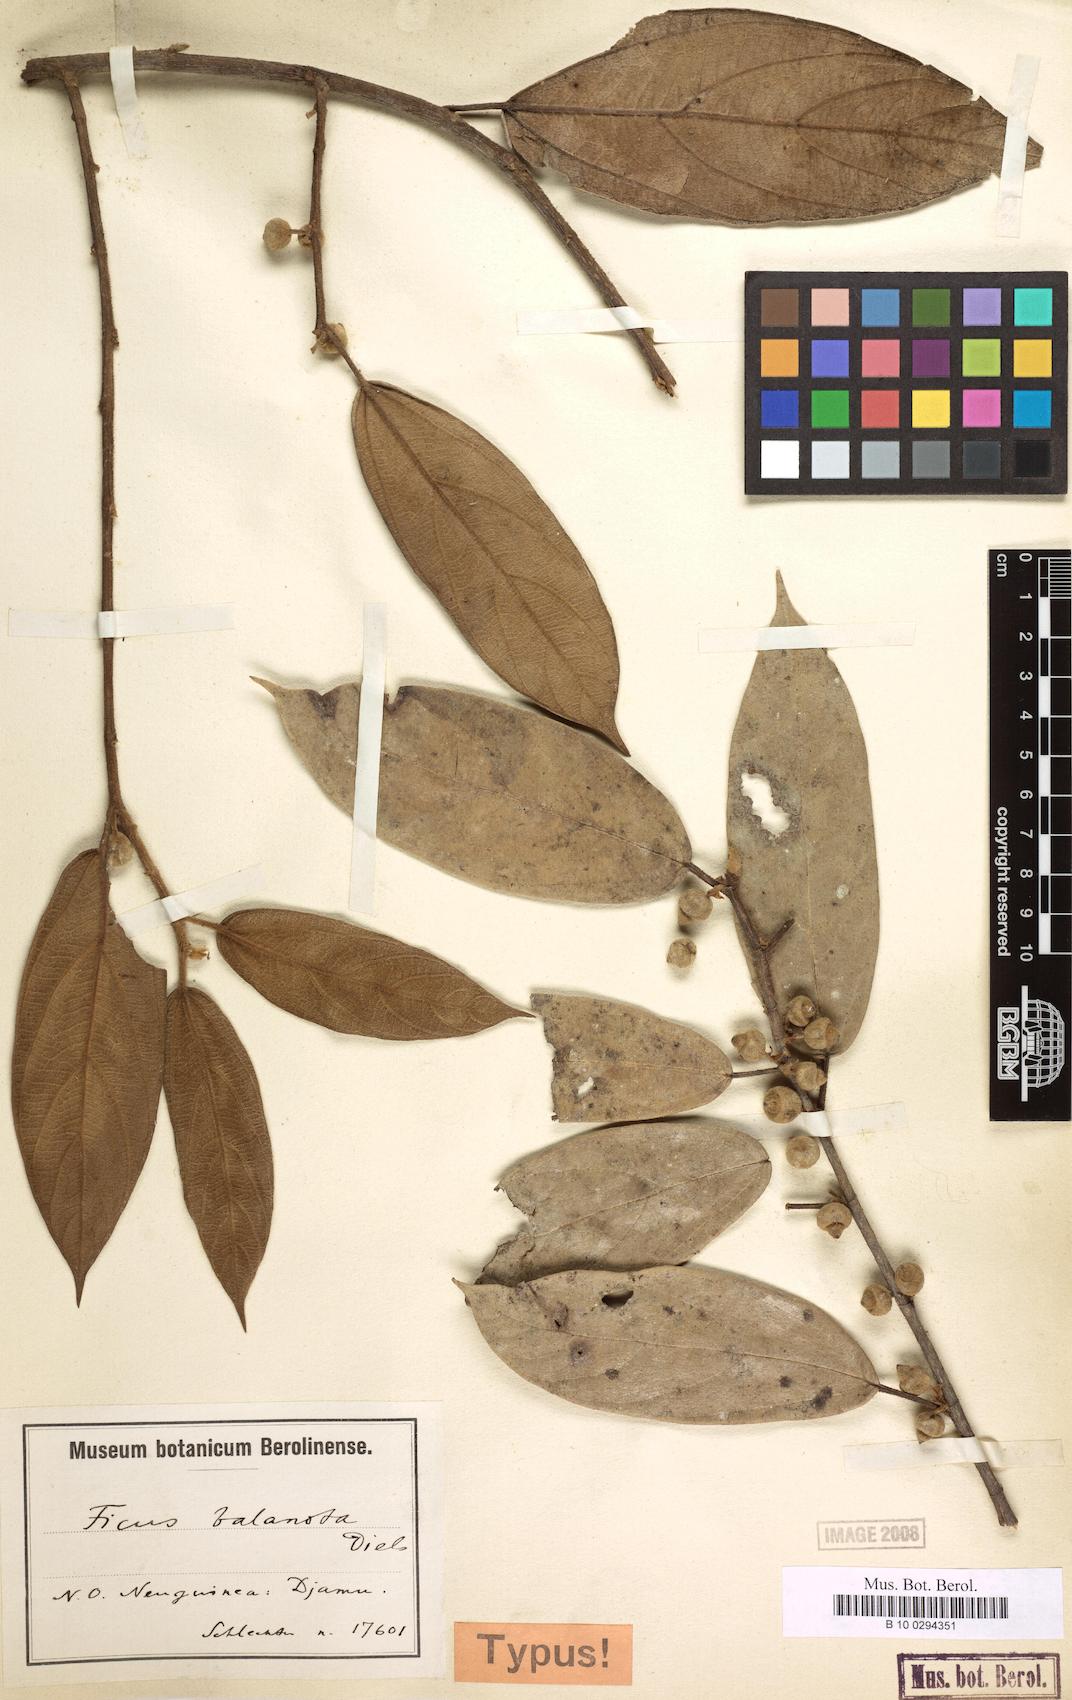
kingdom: Plantae
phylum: Tracheophyta
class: Magnoliopsida
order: Rosales
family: Moraceae
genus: Ficus
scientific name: Ficus baeuerlenii
